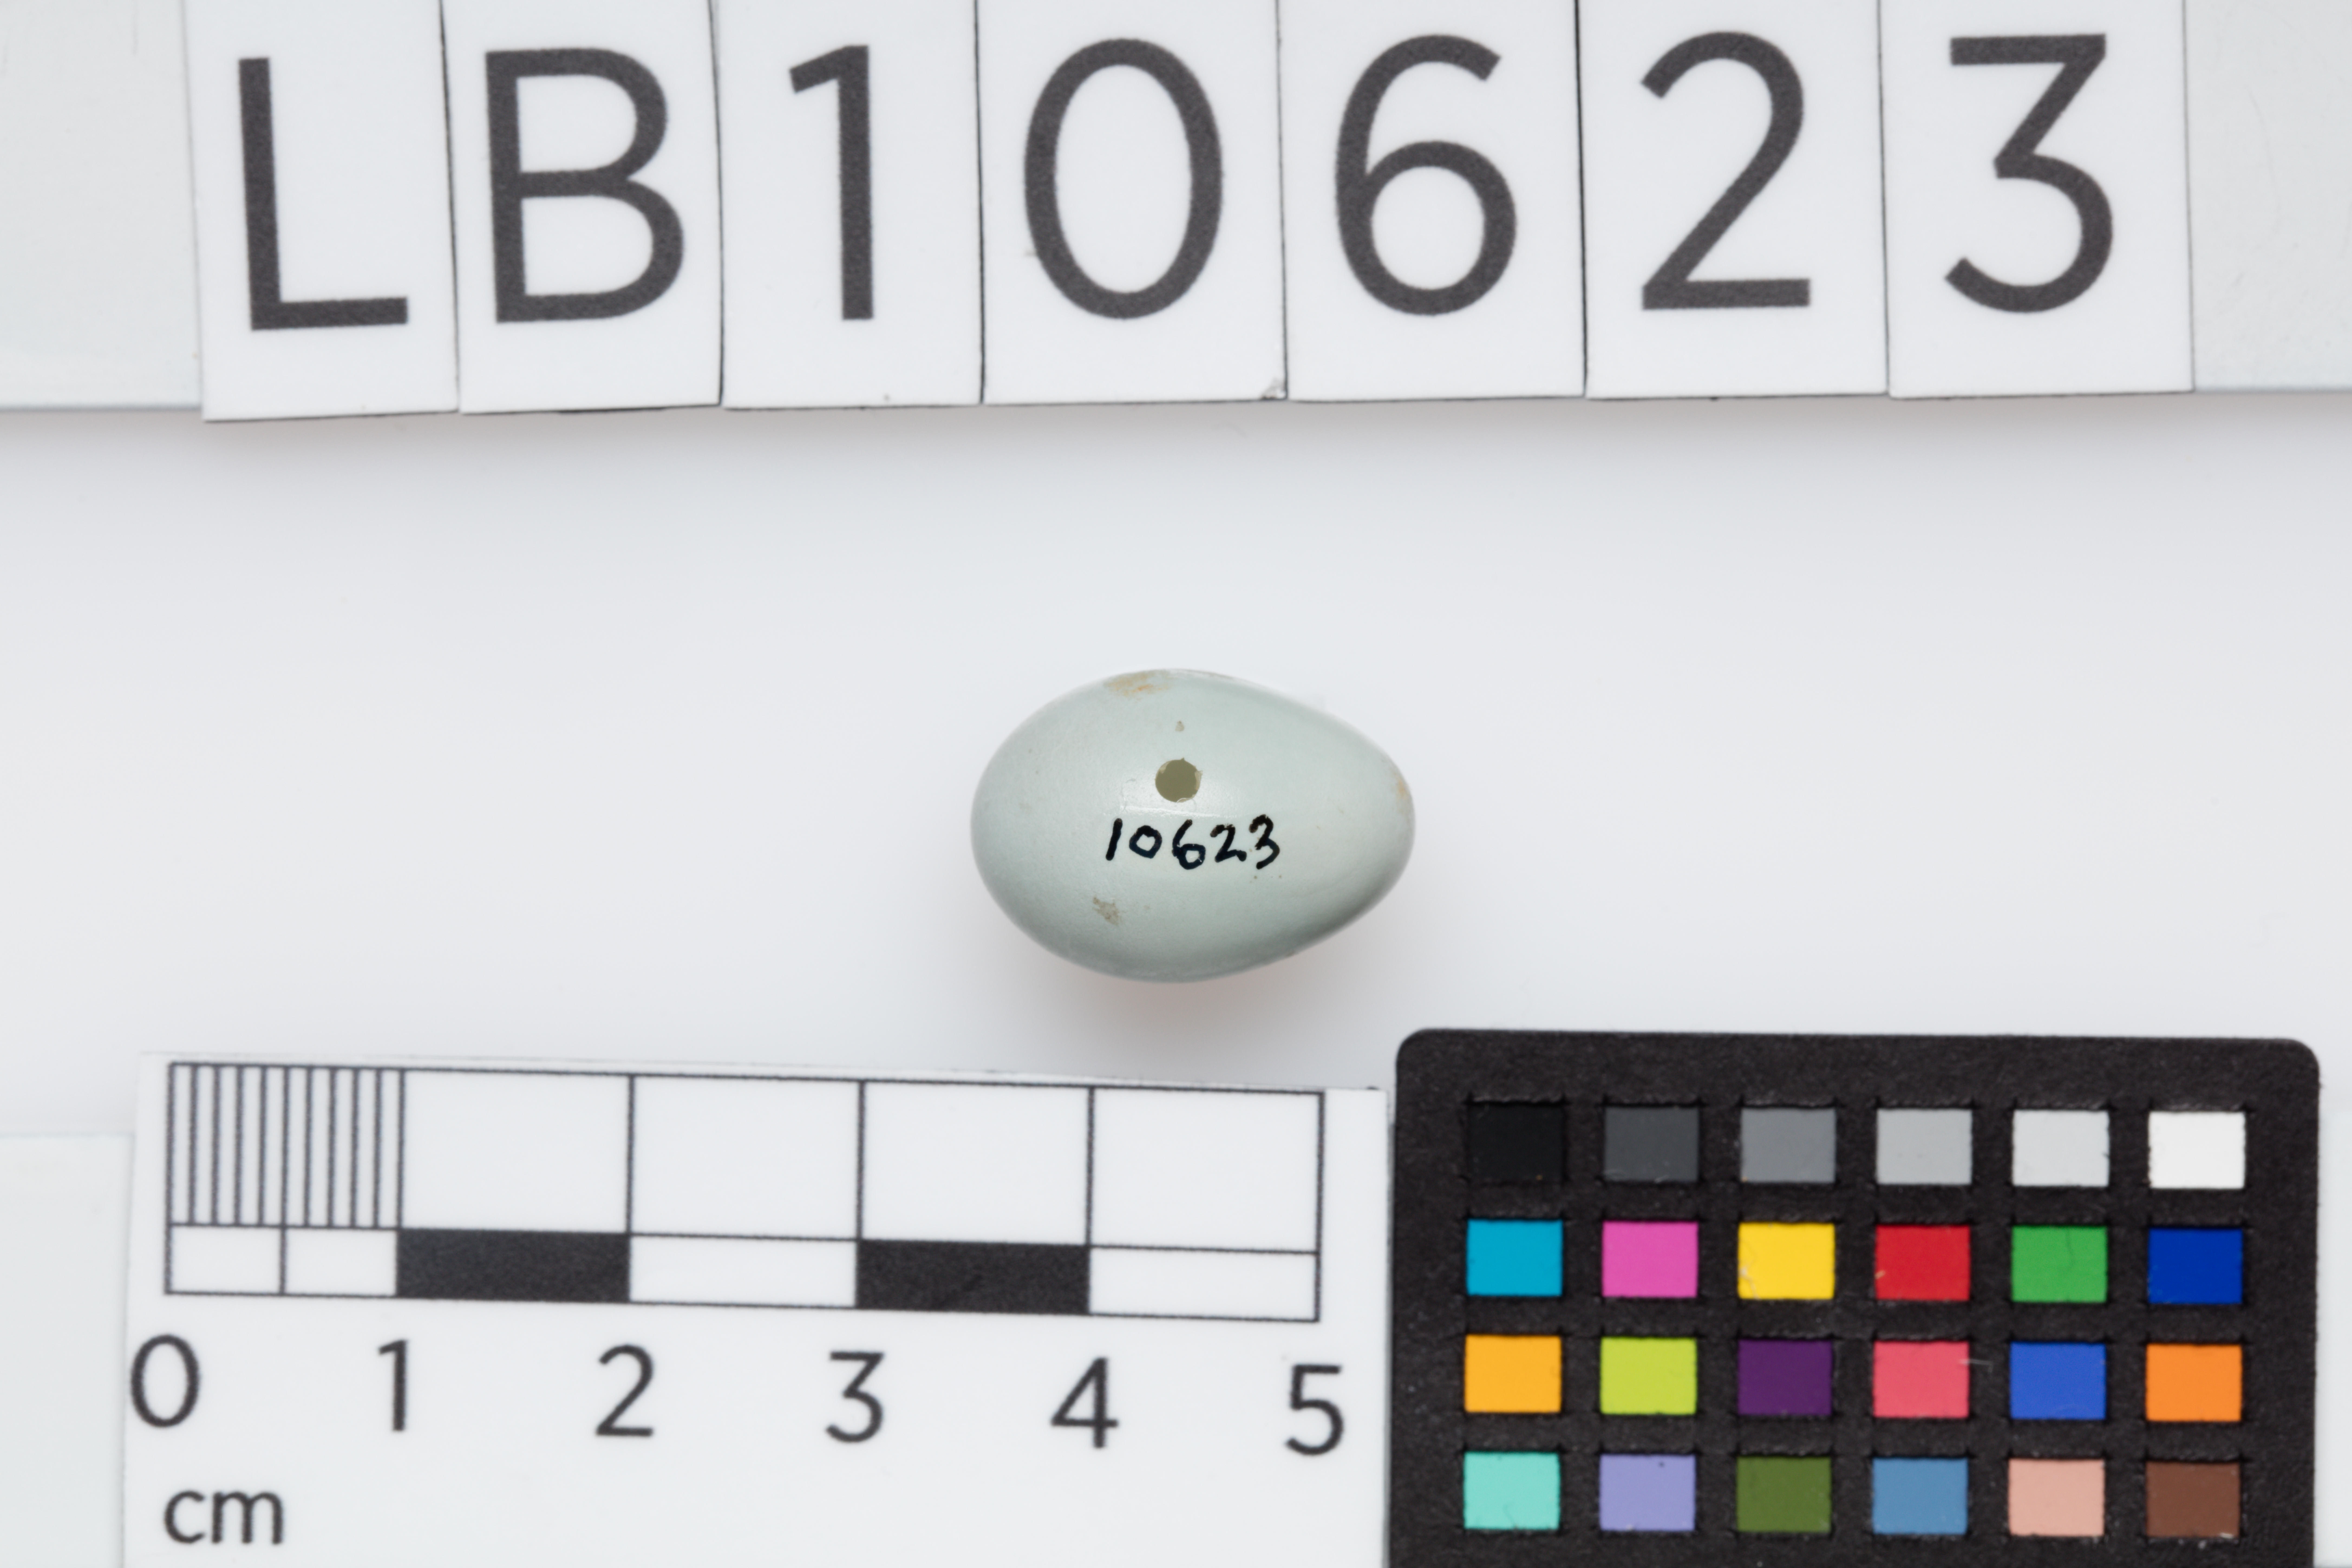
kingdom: Animalia
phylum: Chordata
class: Aves
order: Passeriformes
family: Muscicapidae
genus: Ficedula
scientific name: Ficedula hypoleuca
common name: European pied flycatcher
